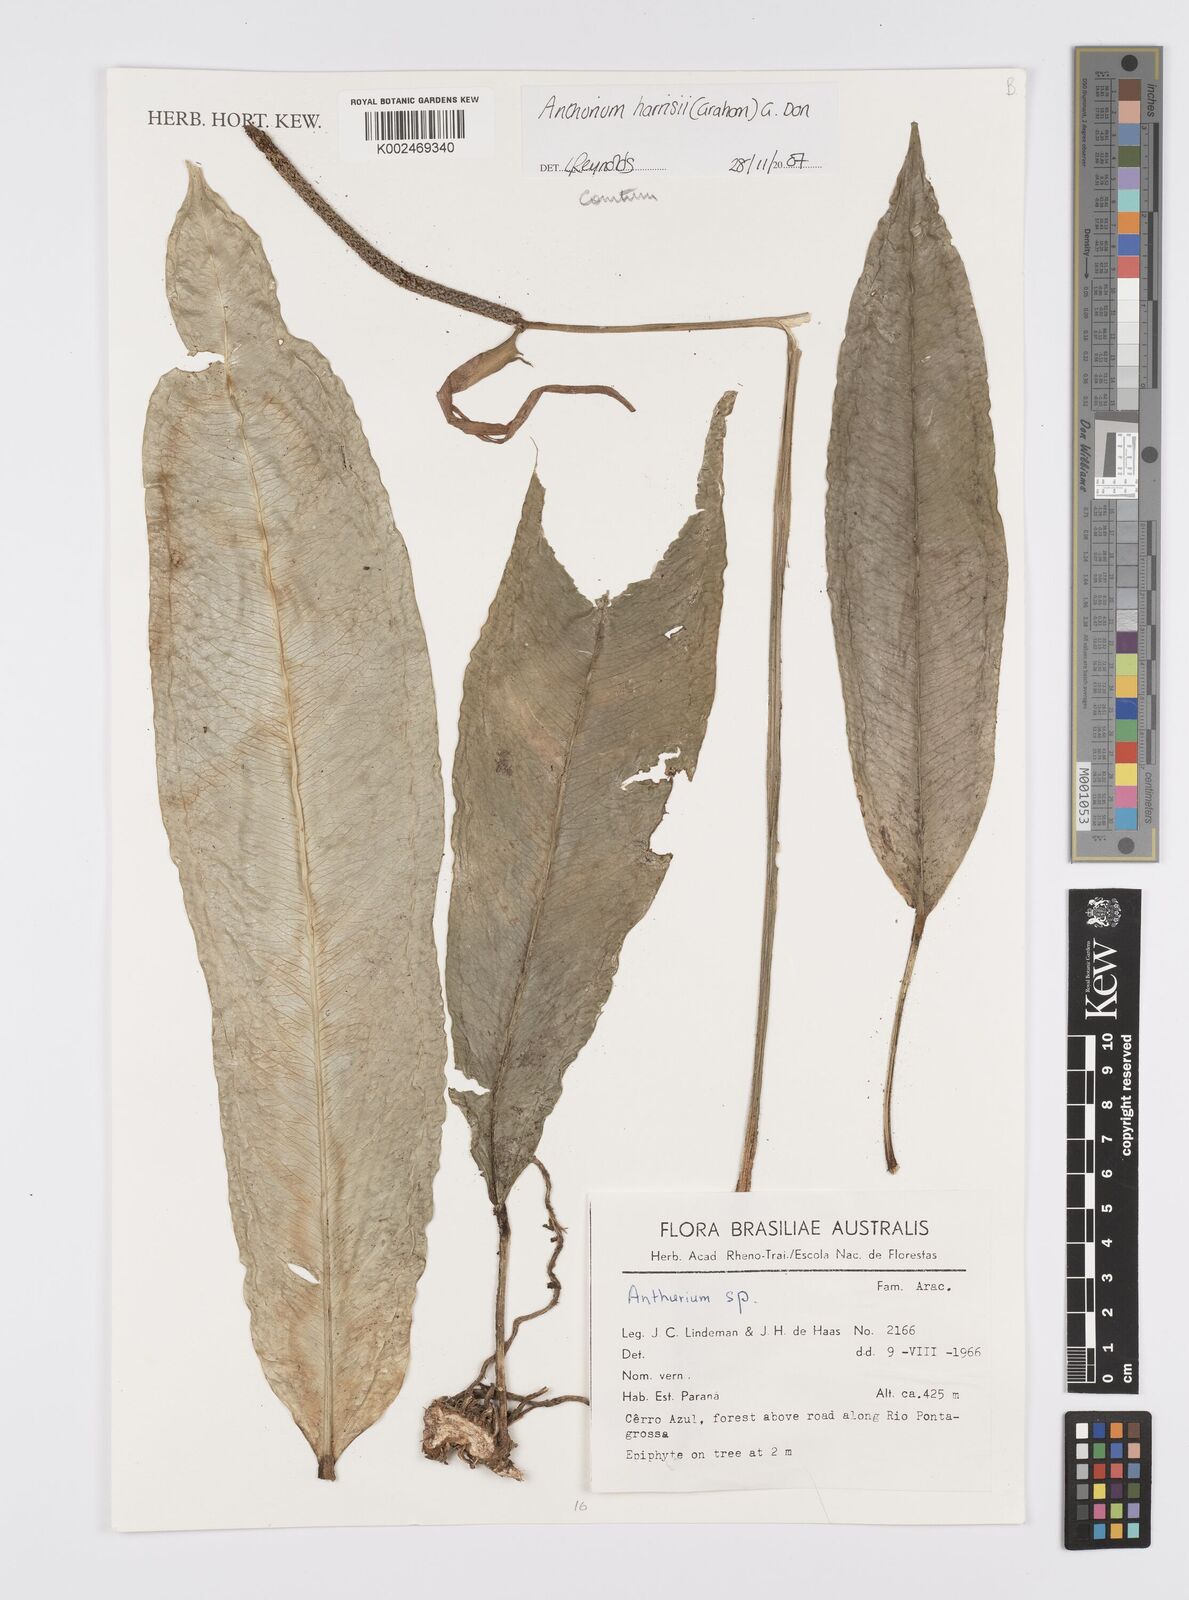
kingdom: Plantae
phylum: Tracheophyta
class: Liliopsida
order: Alismatales
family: Araceae
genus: Anthurium
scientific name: Anthurium comtum
